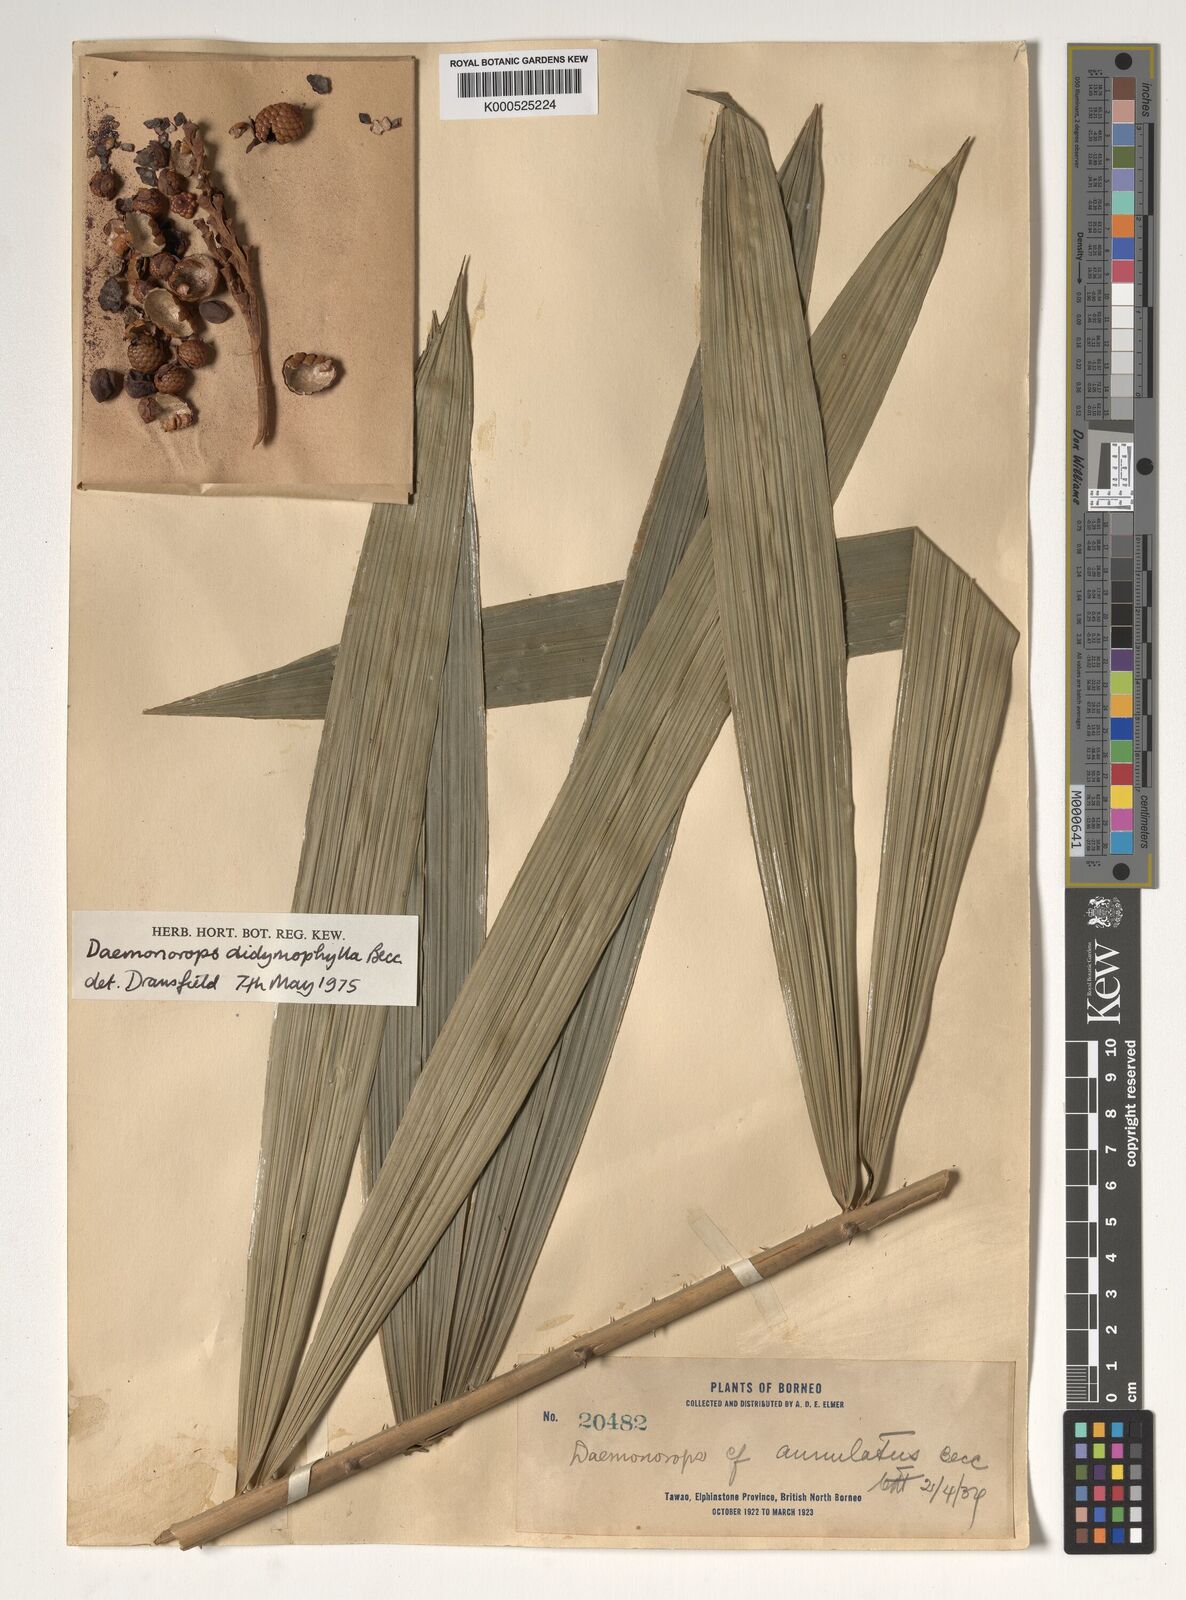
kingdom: Plantae
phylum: Tracheophyta
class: Liliopsida
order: Arecales
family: Arecaceae
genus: Calamus
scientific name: Calamus gracilipes
